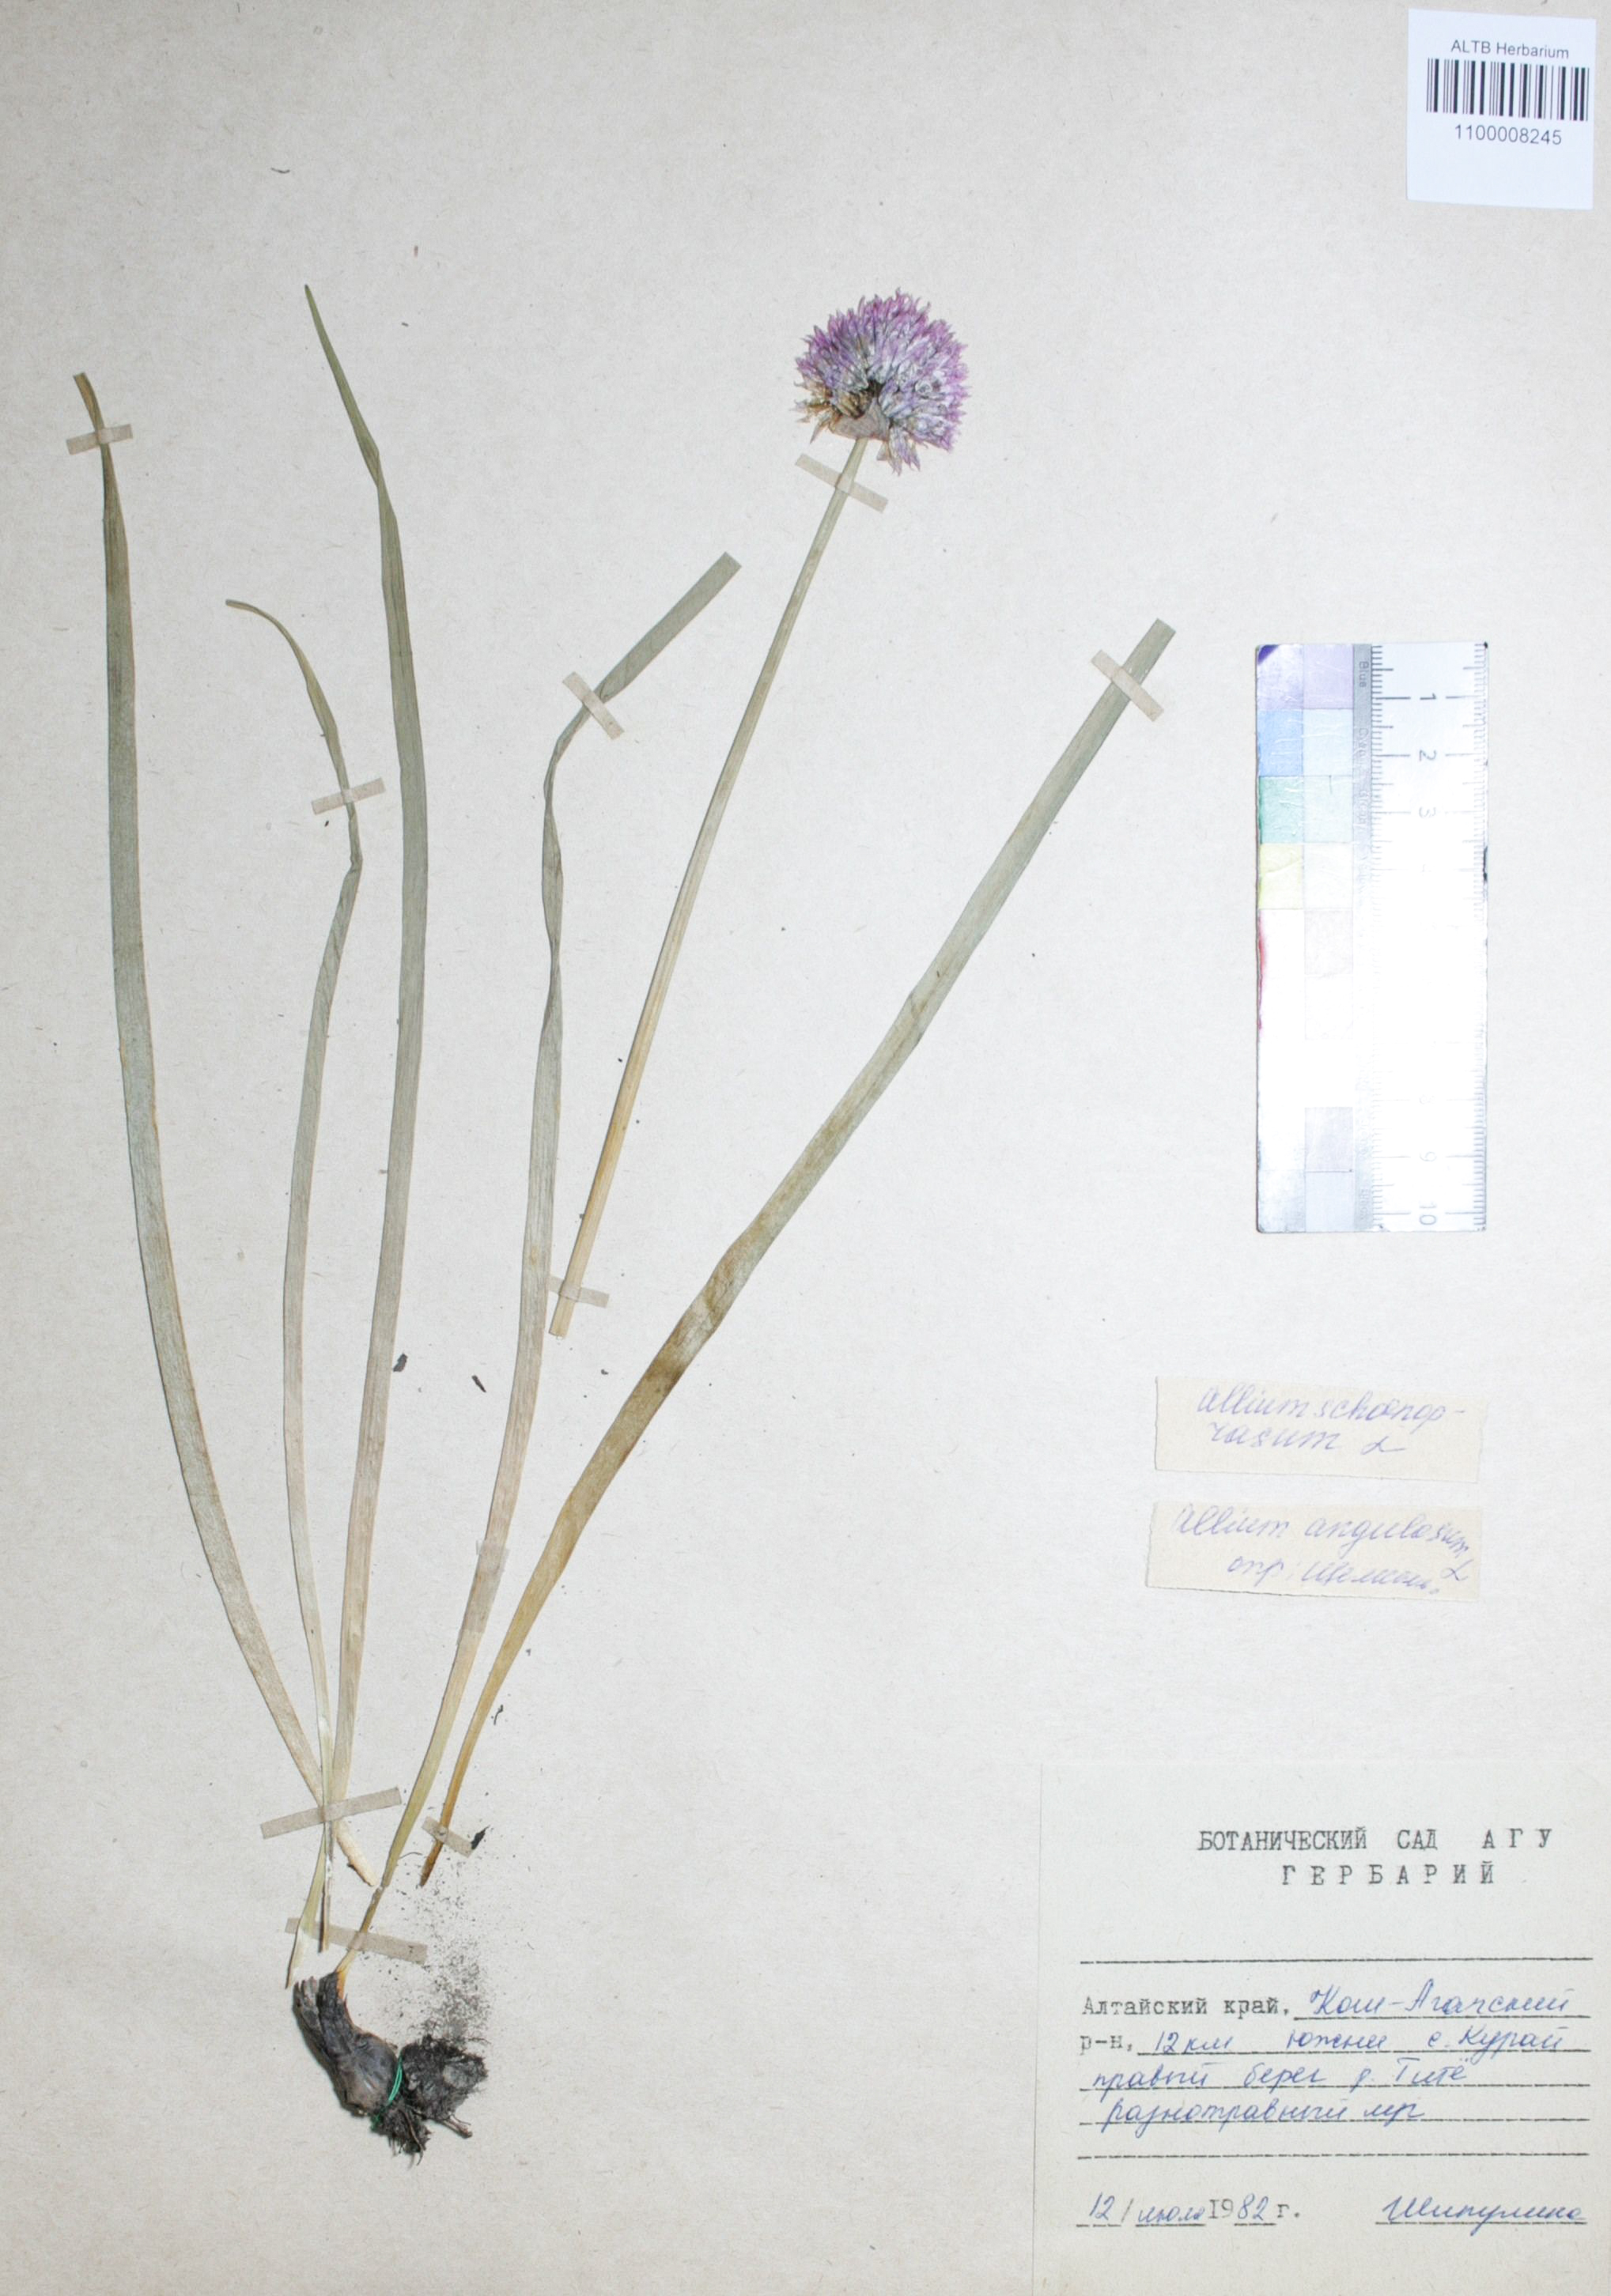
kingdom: Plantae
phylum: Tracheophyta
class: Liliopsida
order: Asparagales
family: Amaryllidaceae
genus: Allium
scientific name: Allium schoenoprasum
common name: Chives
